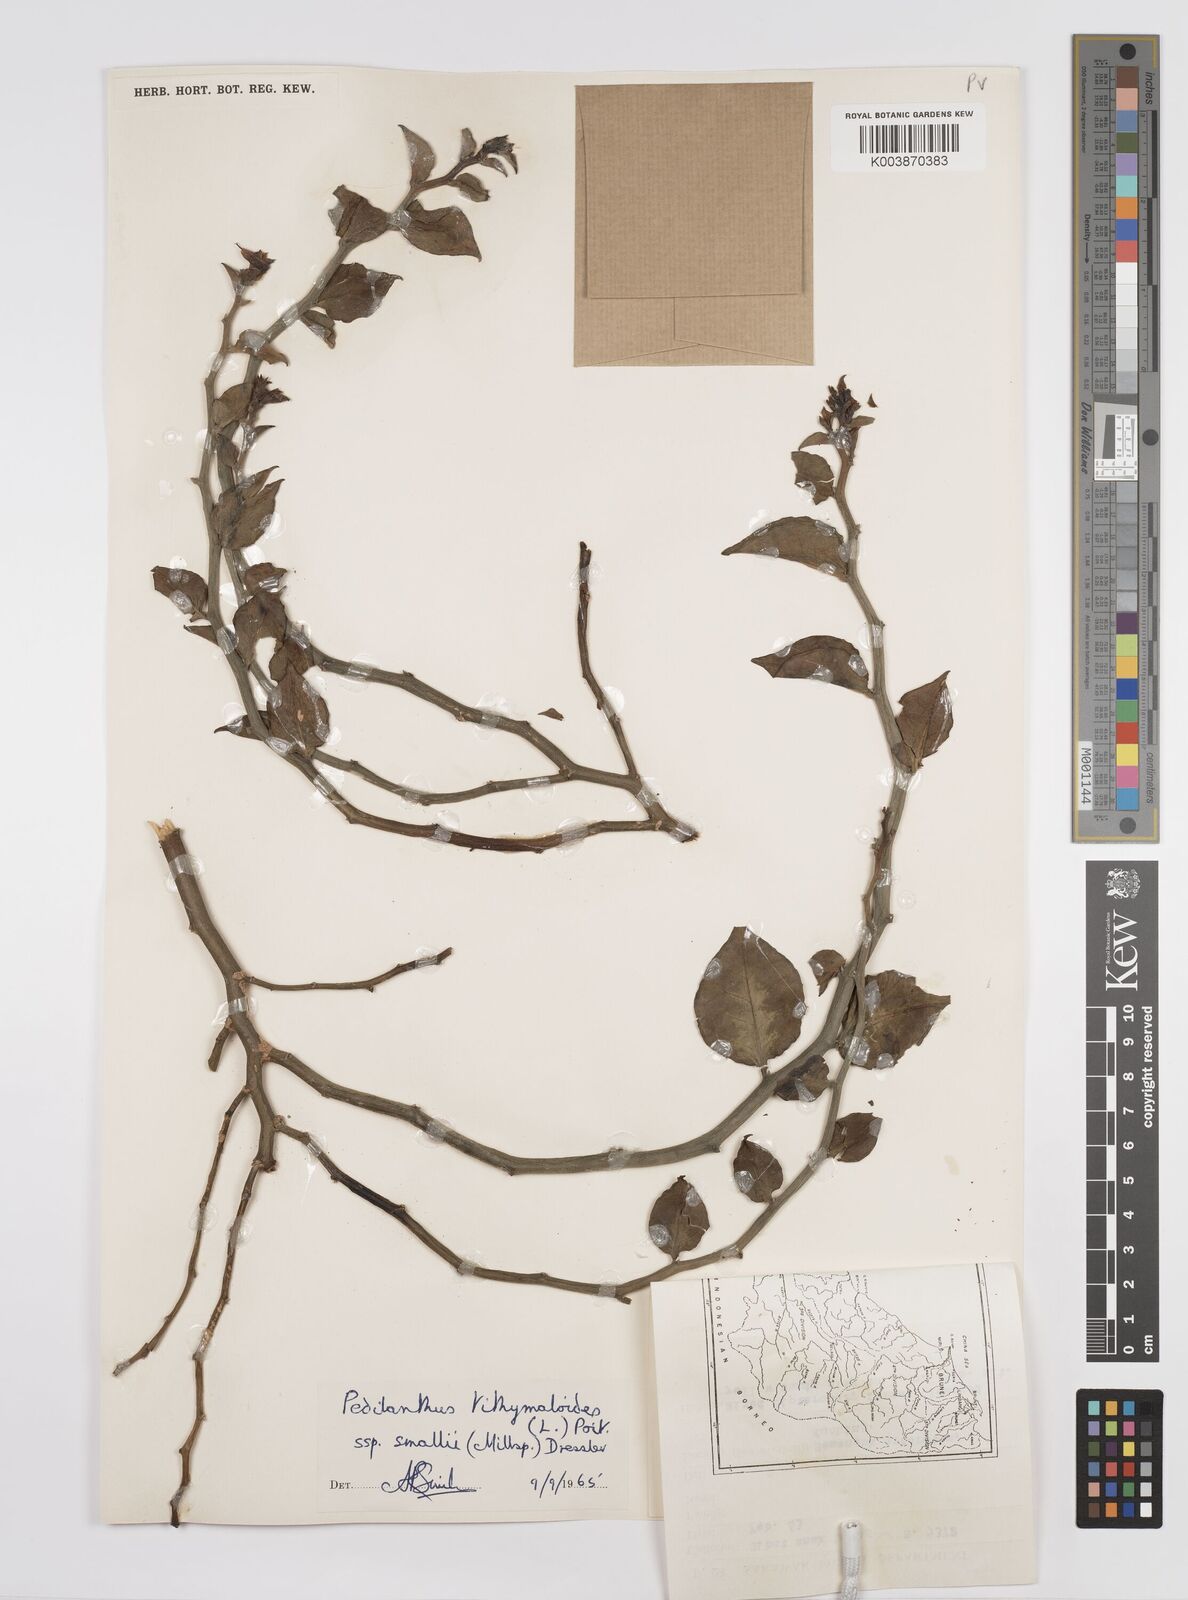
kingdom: Plantae
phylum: Tracheophyta
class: Magnoliopsida
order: Malpighiales
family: Euphorbiaceae
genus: Euphorbia
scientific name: Euphorbia tithymaloides
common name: Slipperplant
